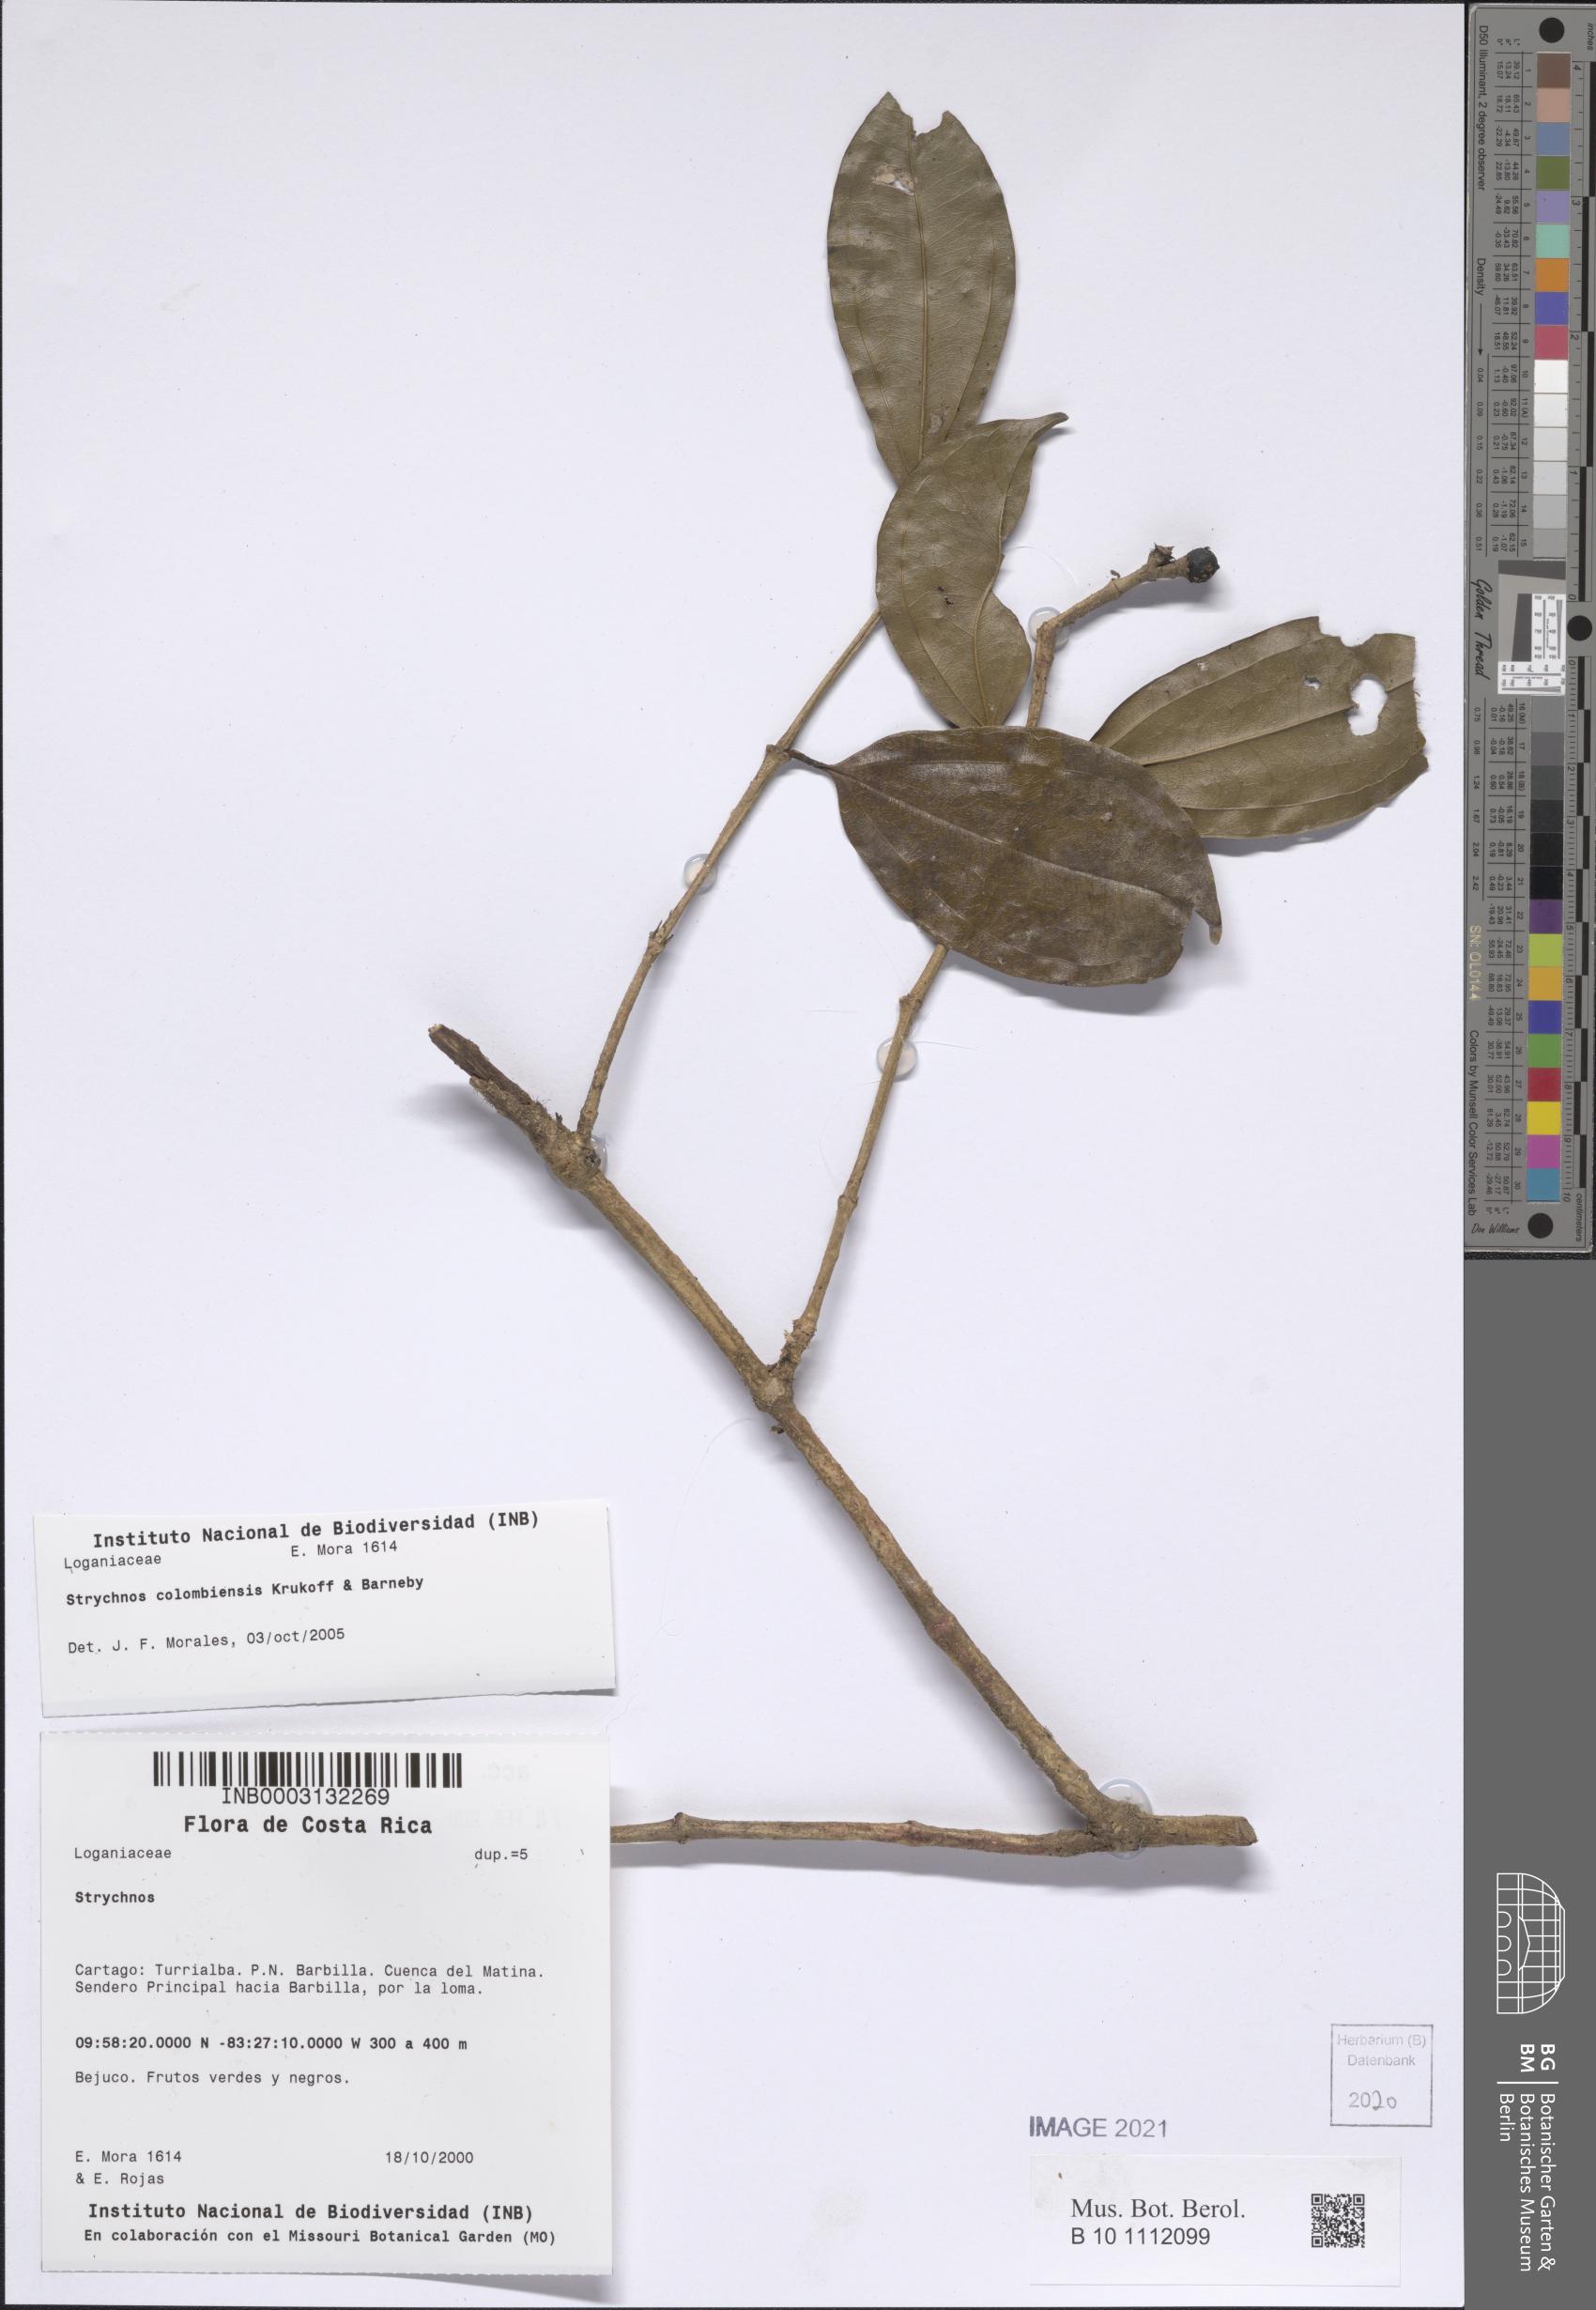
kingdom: Plantae
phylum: Tracheophyta
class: Magnoliopsida
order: Gentianales
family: Loganiaceae
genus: Strychnos
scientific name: Strychnos colombiensis
